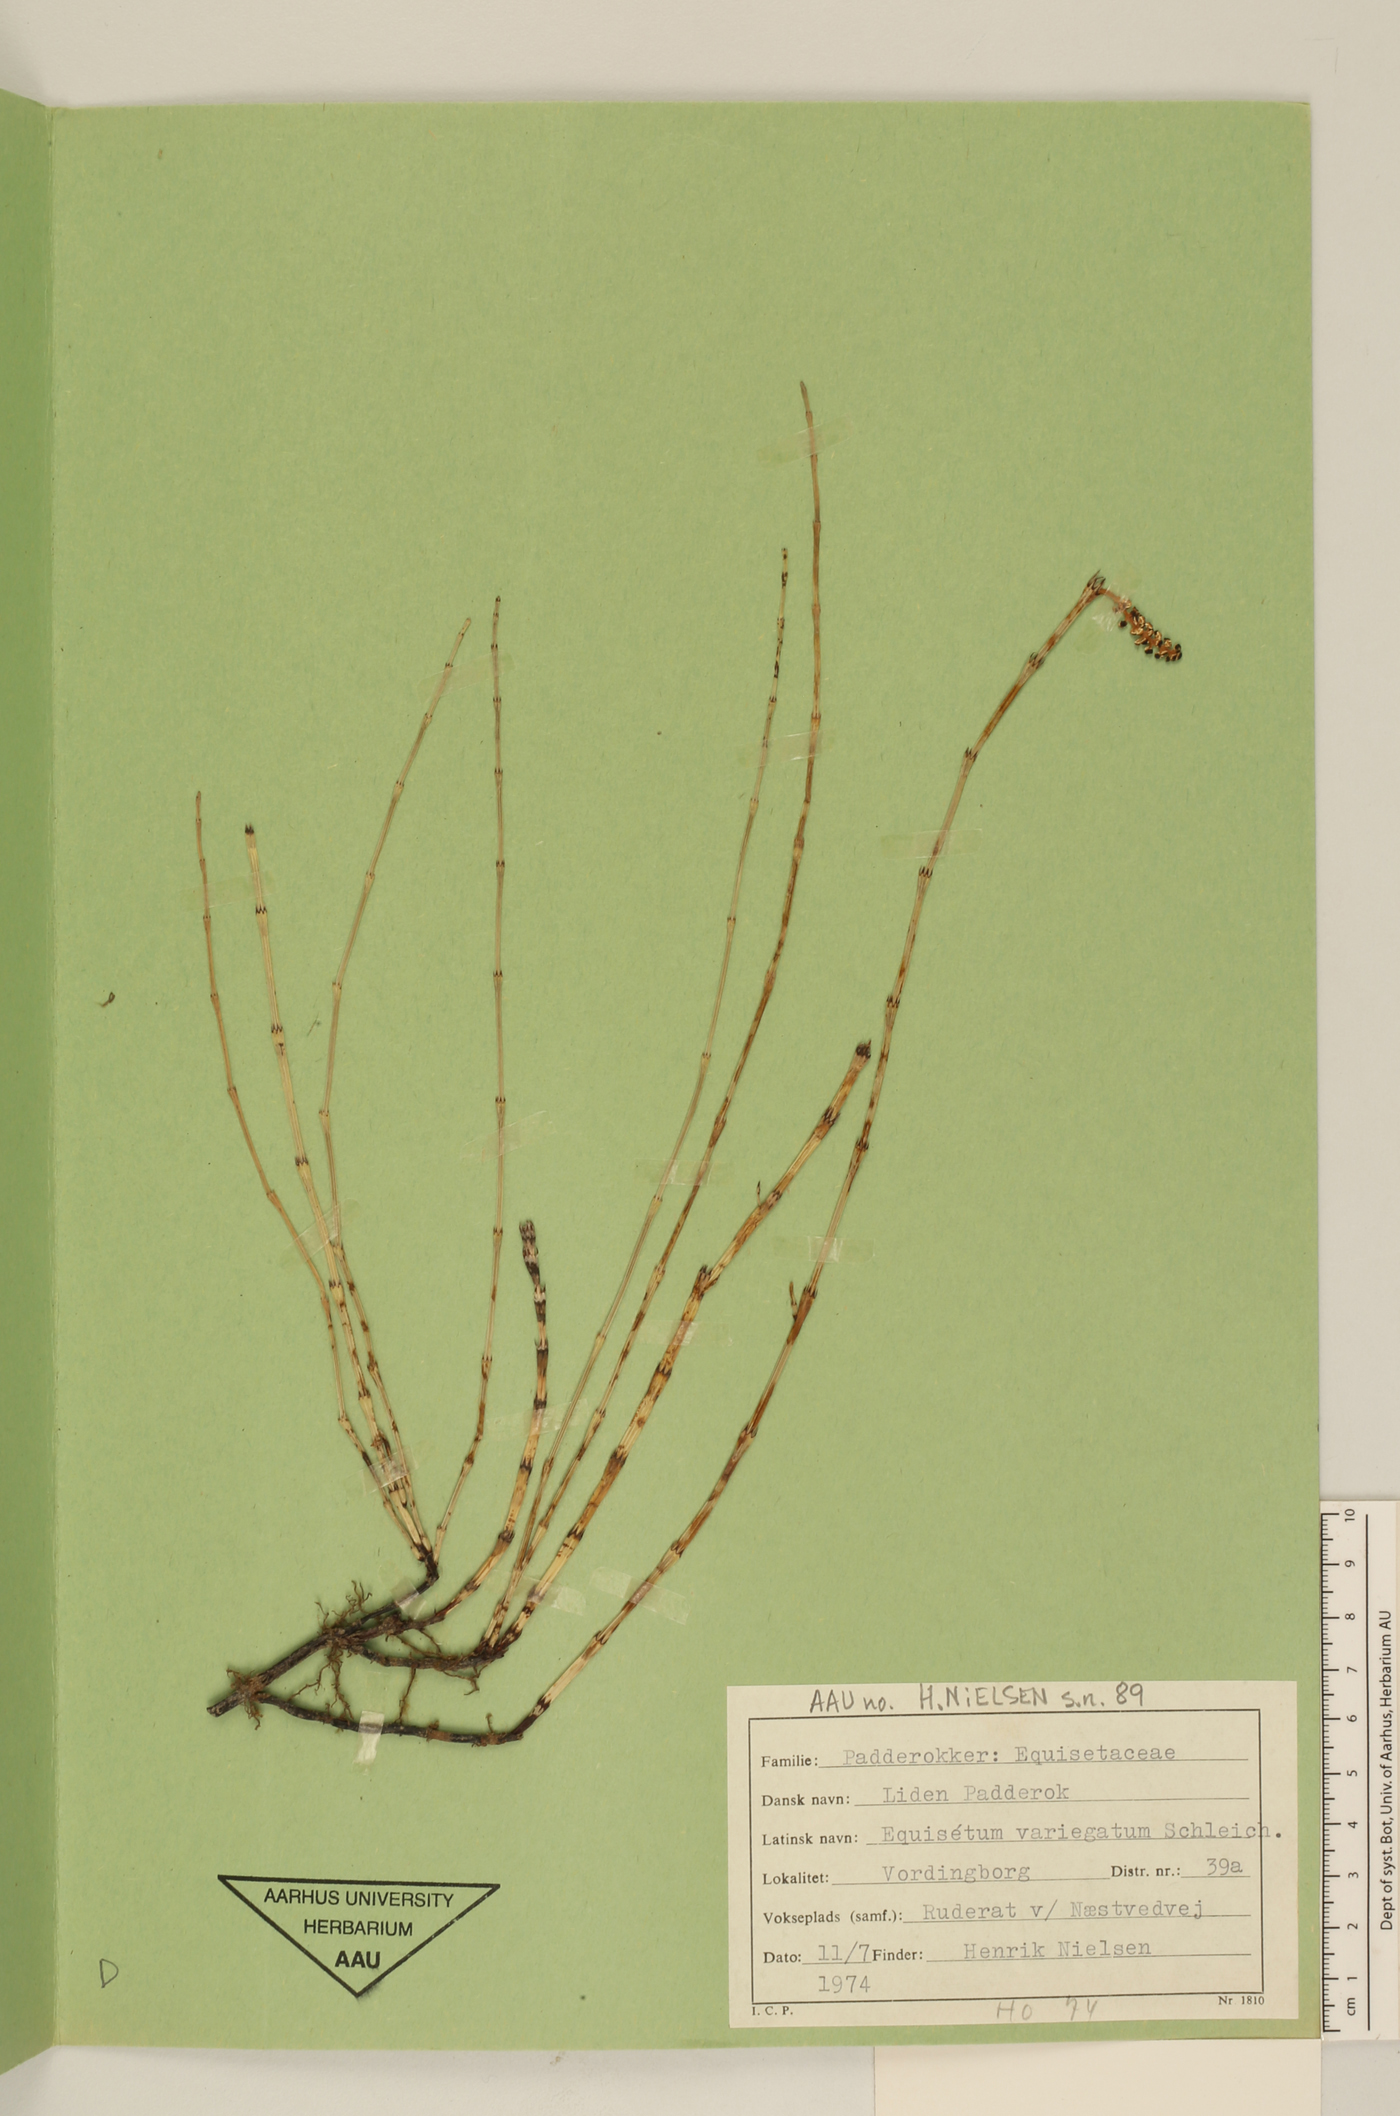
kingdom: Plantae
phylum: Tracheophyta
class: Polypodiopsida
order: Equisetales
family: Equisetaceae
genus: Equisetum
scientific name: Equisetum variegatum
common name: Variegated horsetail
